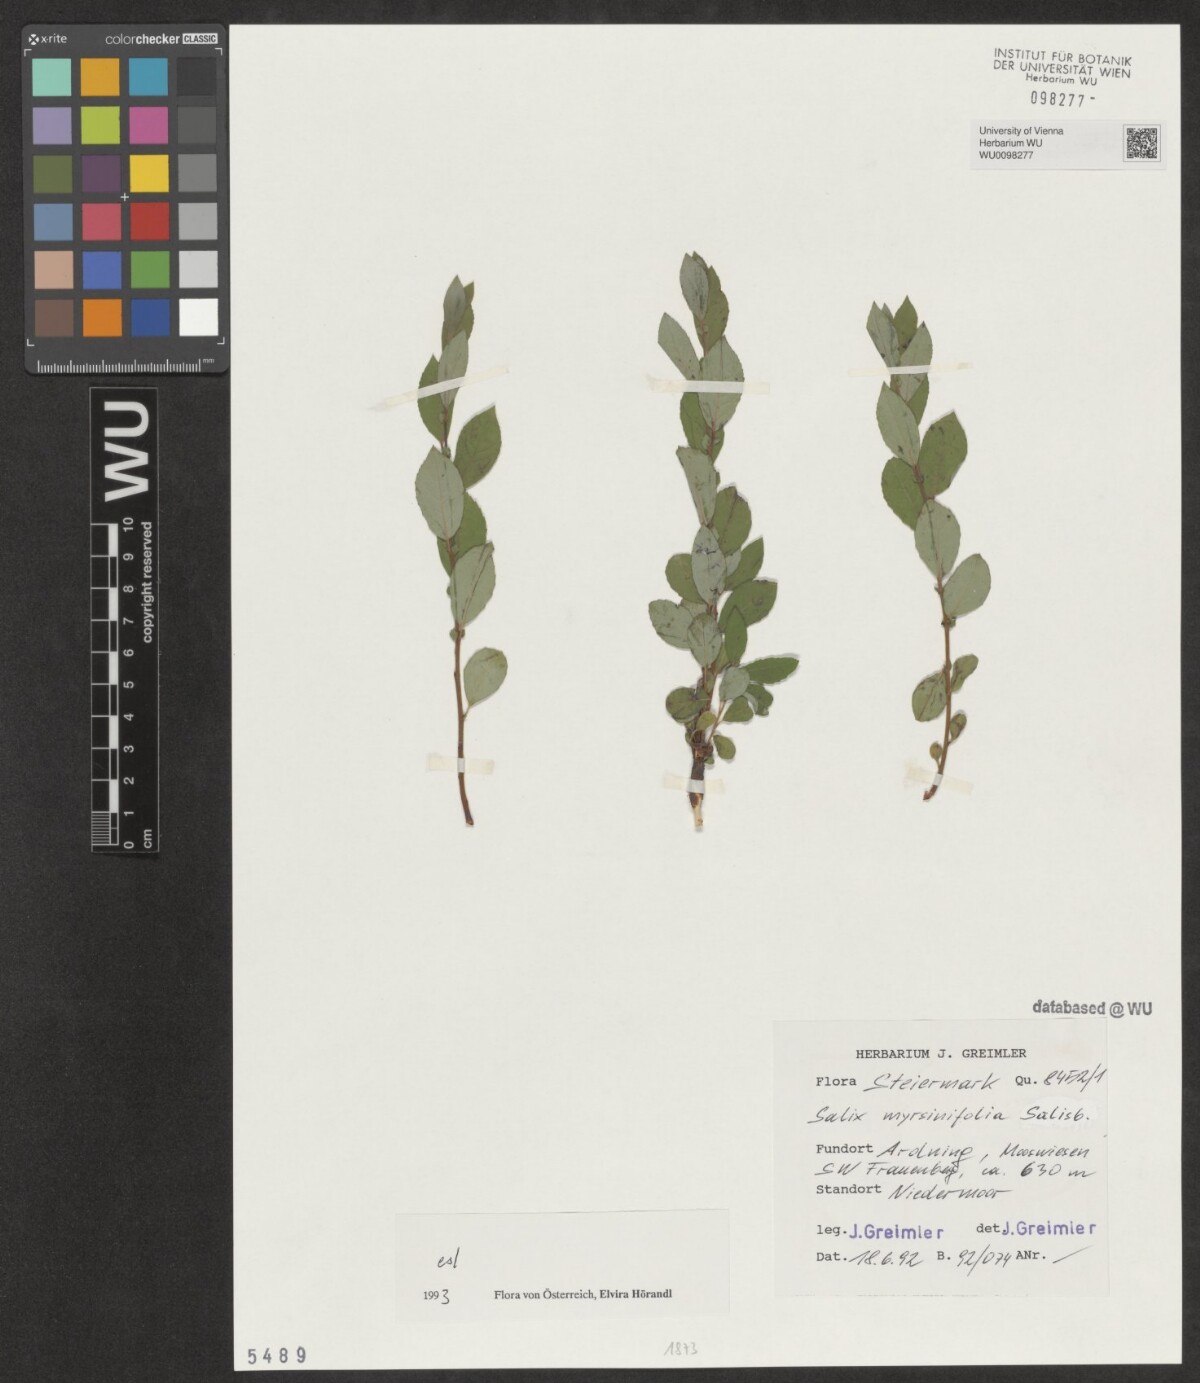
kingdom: Plantae
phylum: Tracheophyta
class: Magnoliopsida
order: Malpighiales
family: Salicaceae
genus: Salix
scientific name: Salix myrsinifolia
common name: Dark-leaved willow
